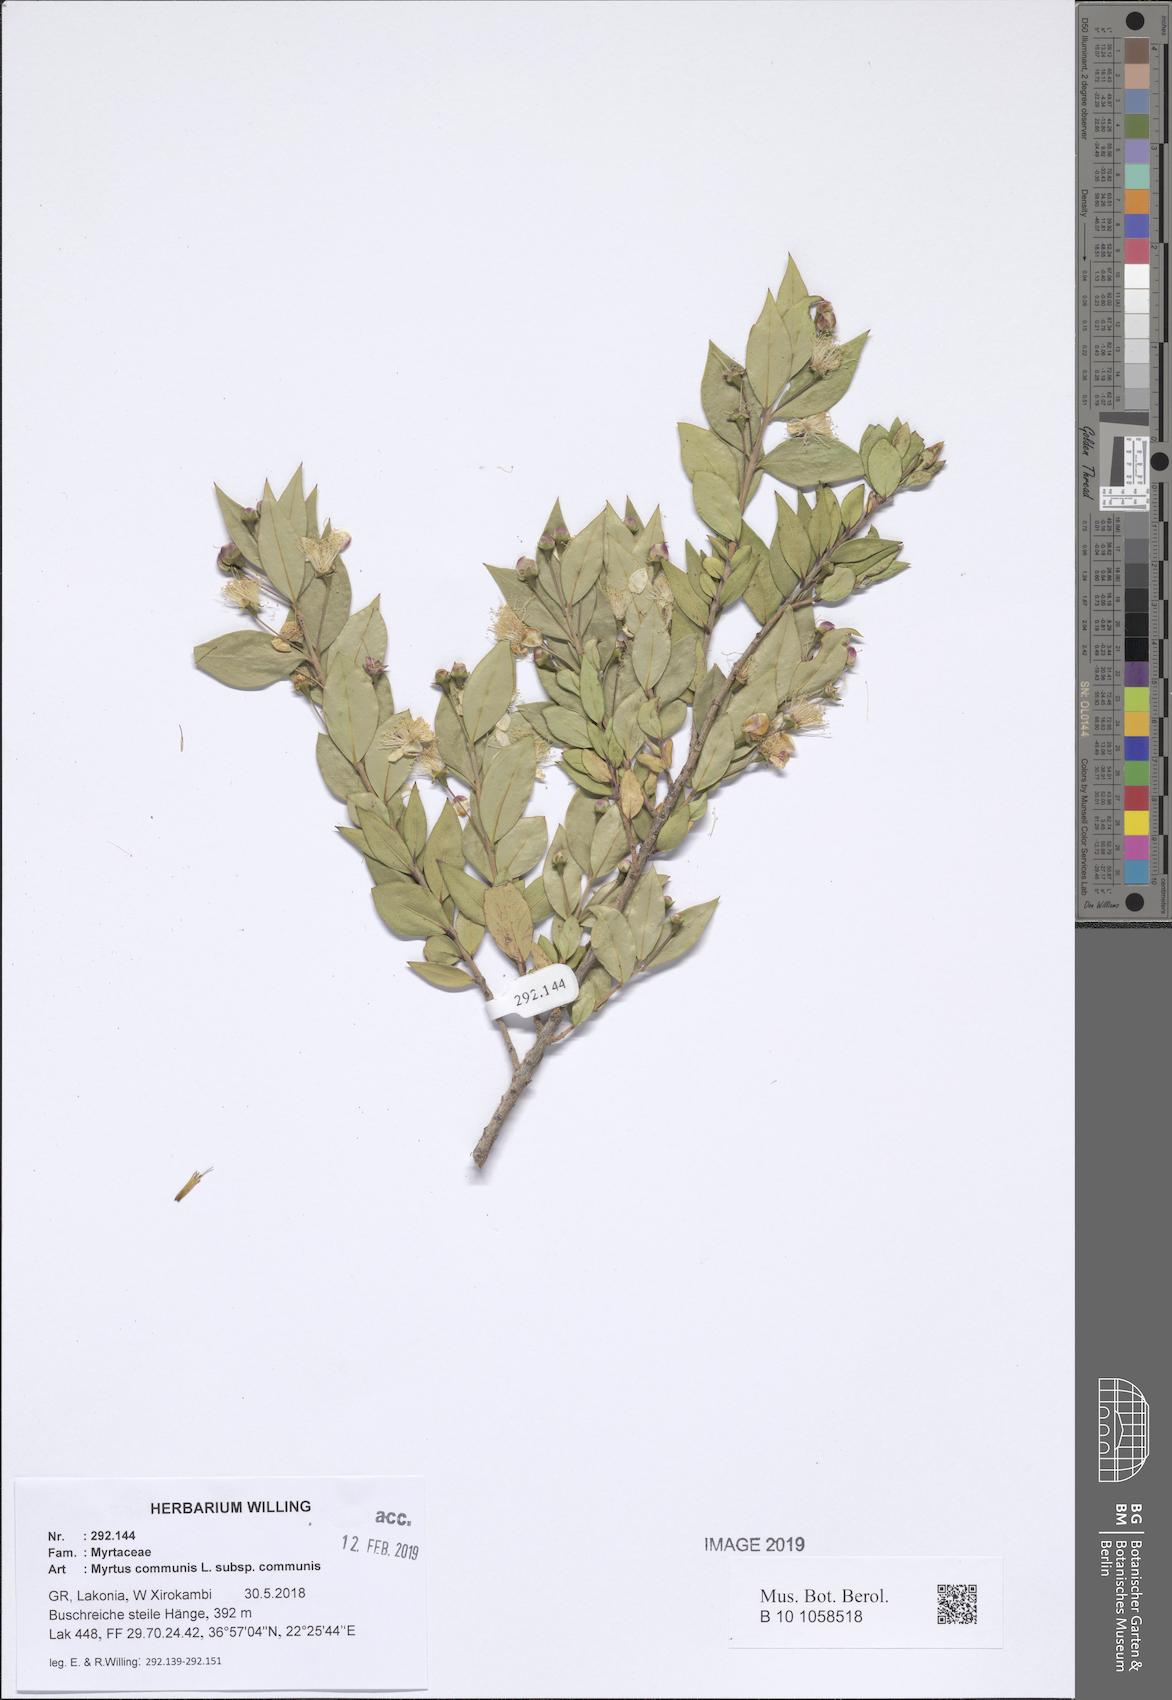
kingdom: Plantae
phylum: Tracheophyta
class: Magnoliopsida
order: Myrtales
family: Myrtaceae
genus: Myrtus
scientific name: Myrtus communis
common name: Myrtle
